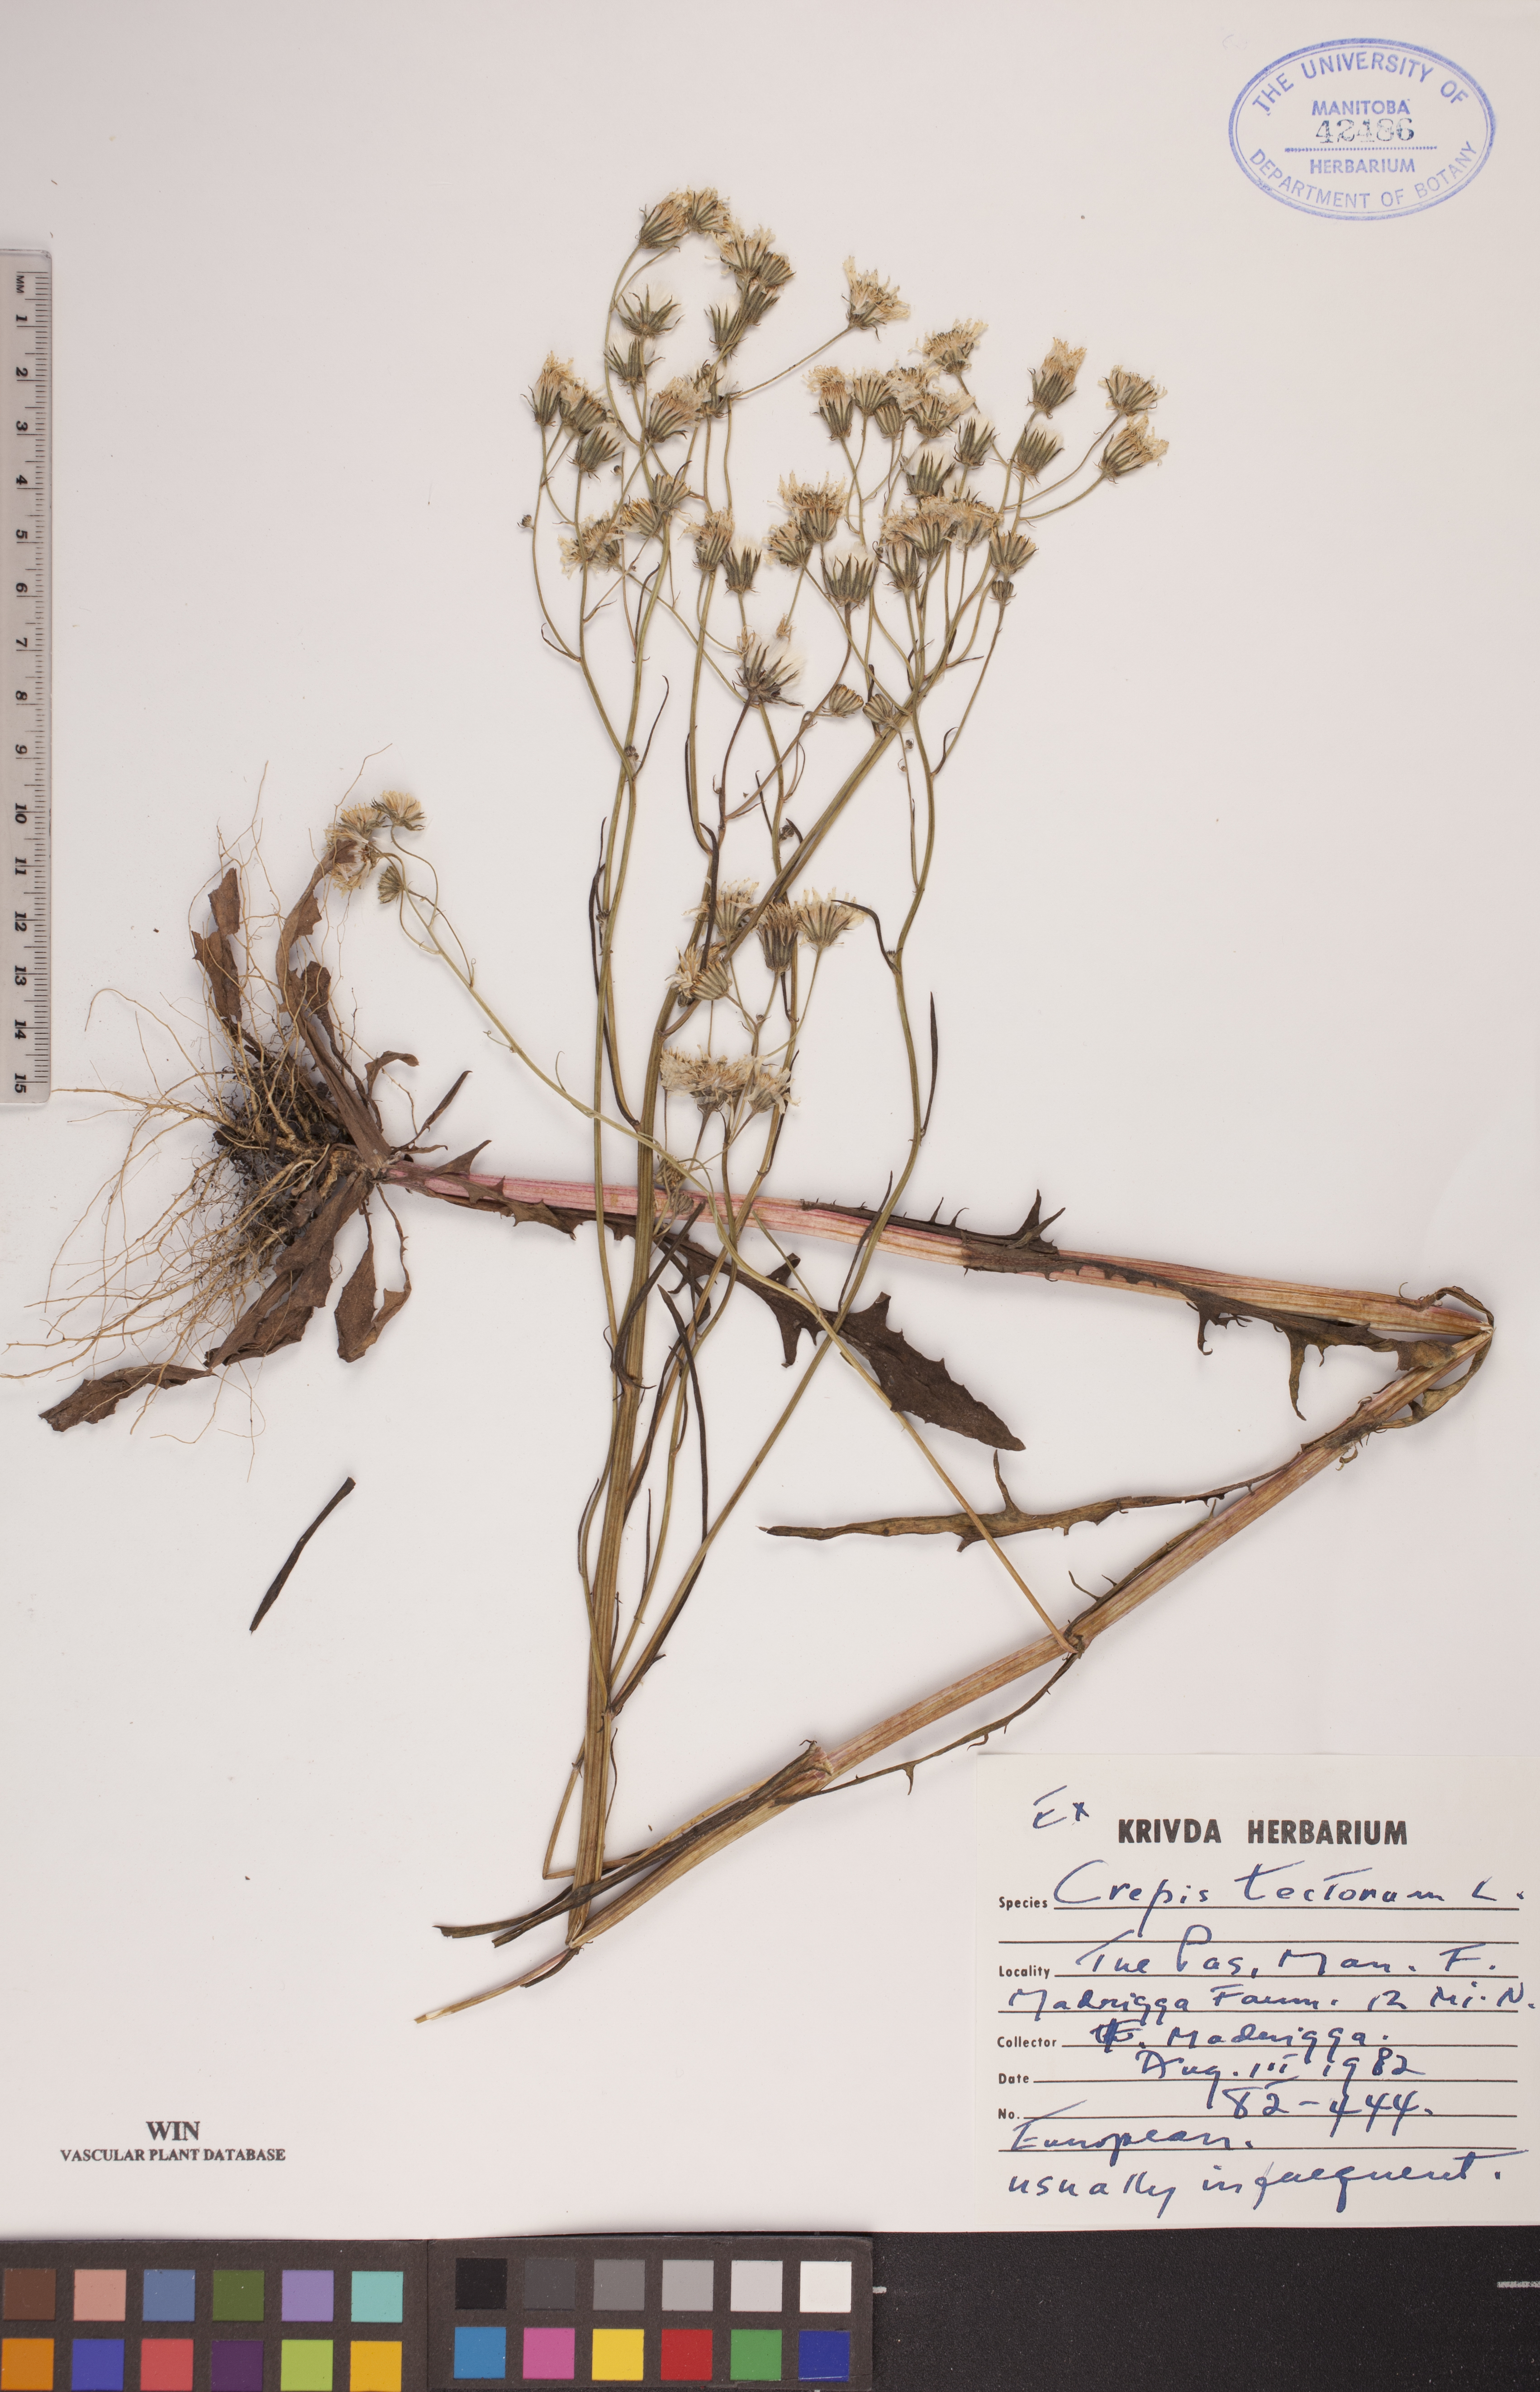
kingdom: Plantae
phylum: Tracheophyta
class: Magnoliopsida
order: Asterales
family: Asteraceae
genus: Crepis
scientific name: Crepis tectorum
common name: Narrow-leaved hawk's-beard
